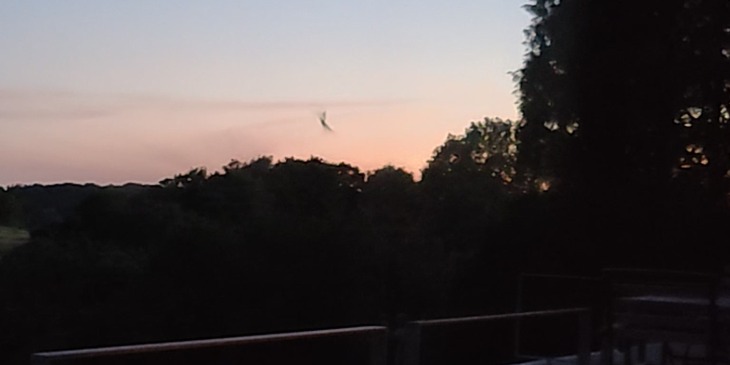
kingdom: Animalia
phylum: Chordata
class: Mammalia
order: Chiroptera
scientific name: Chiroptera
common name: Flagermus
